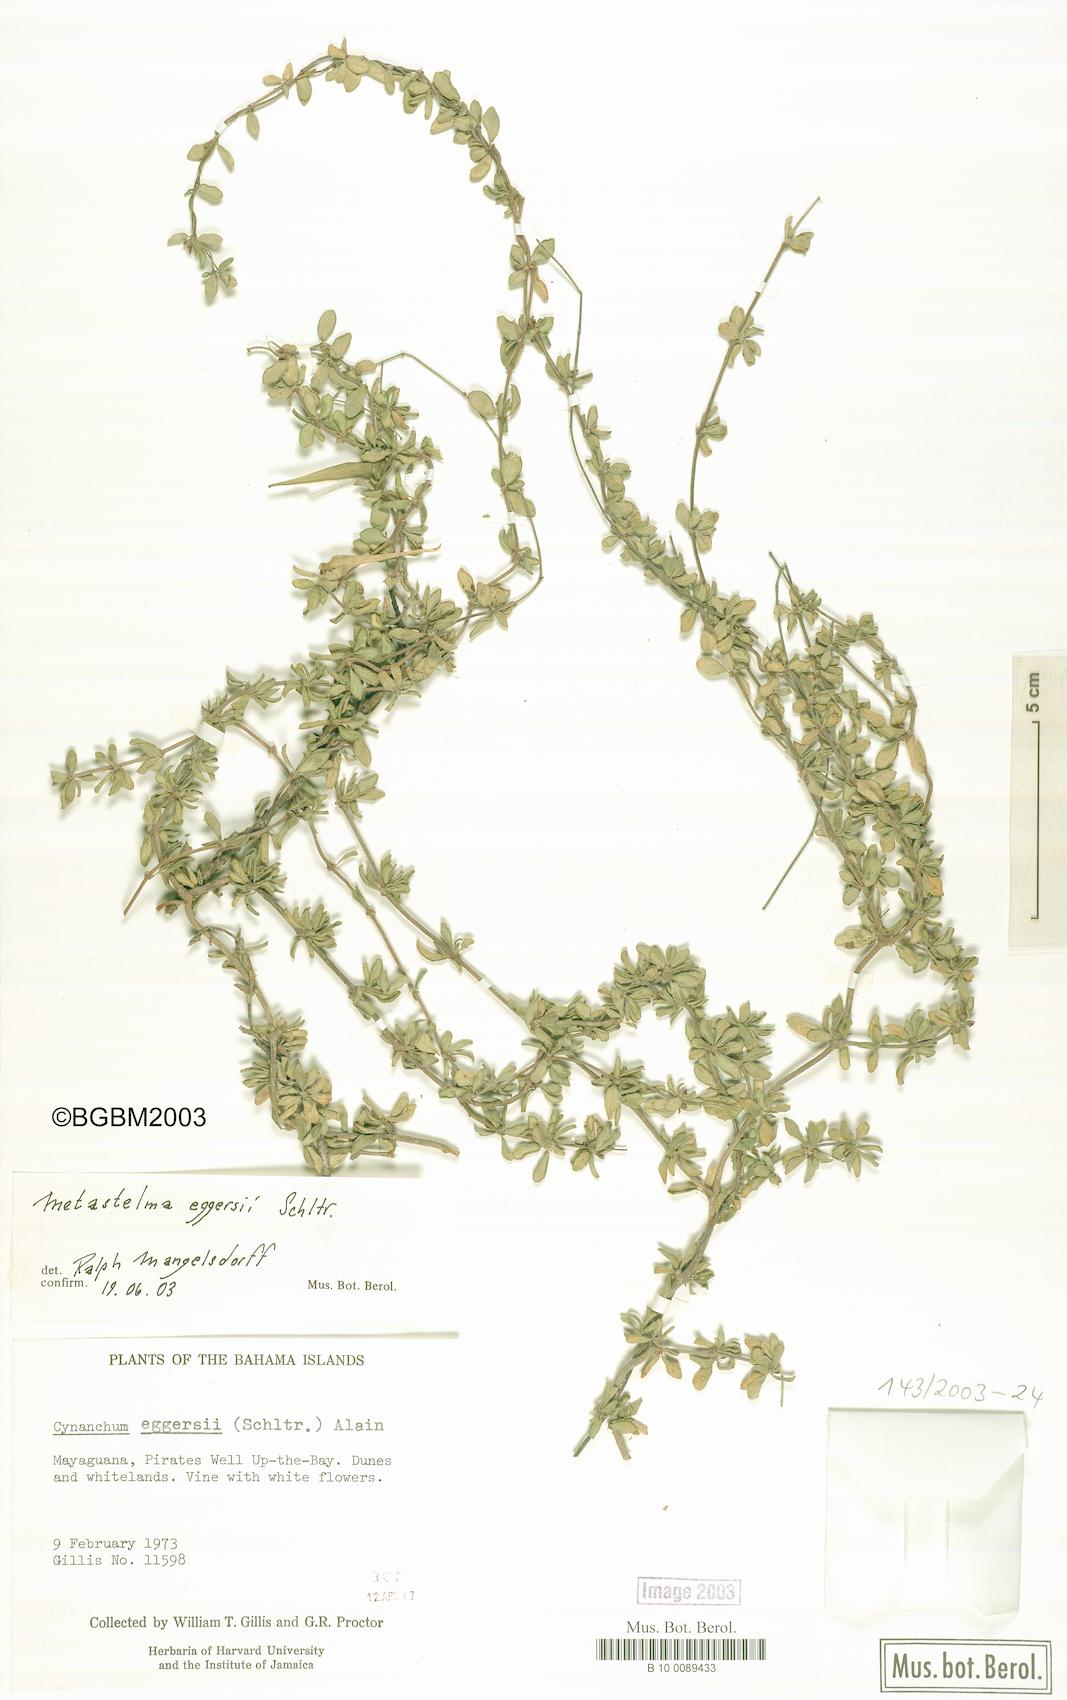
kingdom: Plantae
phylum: Tracheophyta
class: Magnoliopsida
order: Gentianales
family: Apocynaceae
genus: Anemotrochus
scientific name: Anemotrochus eggersii
